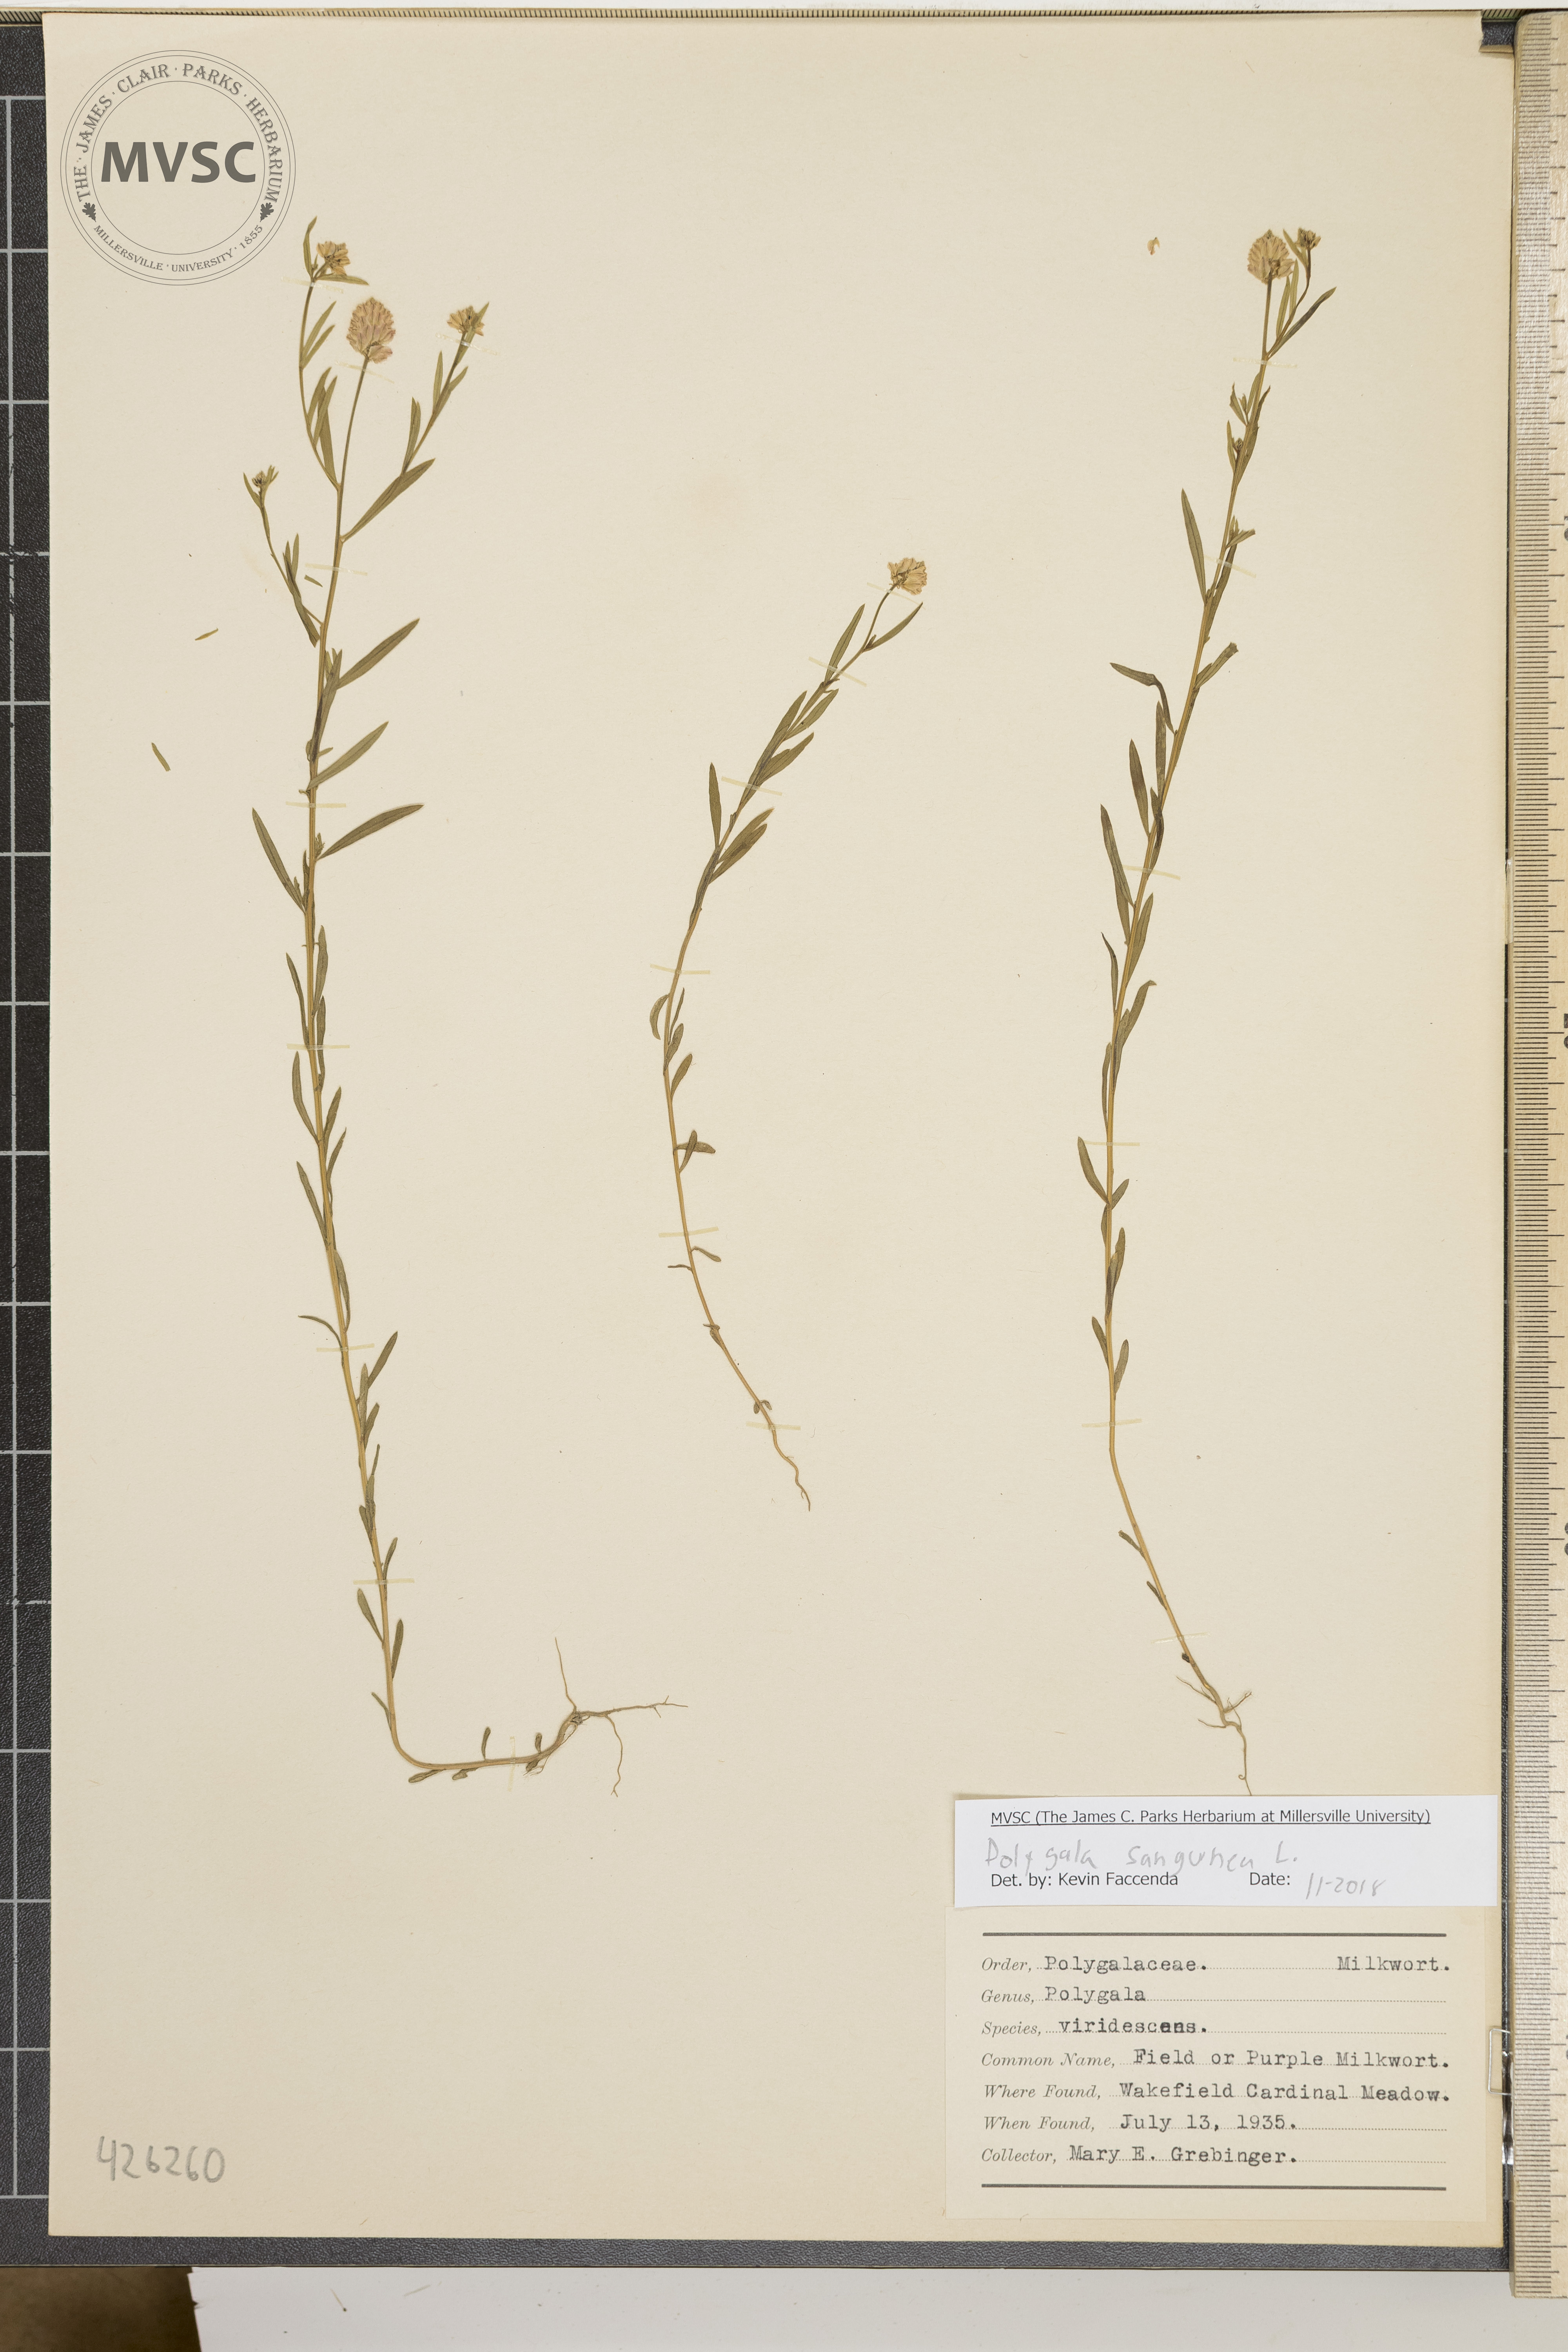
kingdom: Plantae
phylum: Tracheophyta
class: Magnoliopsida
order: Fabales
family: Polygalaceae
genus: Polygala
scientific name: Polygala sanguinea
